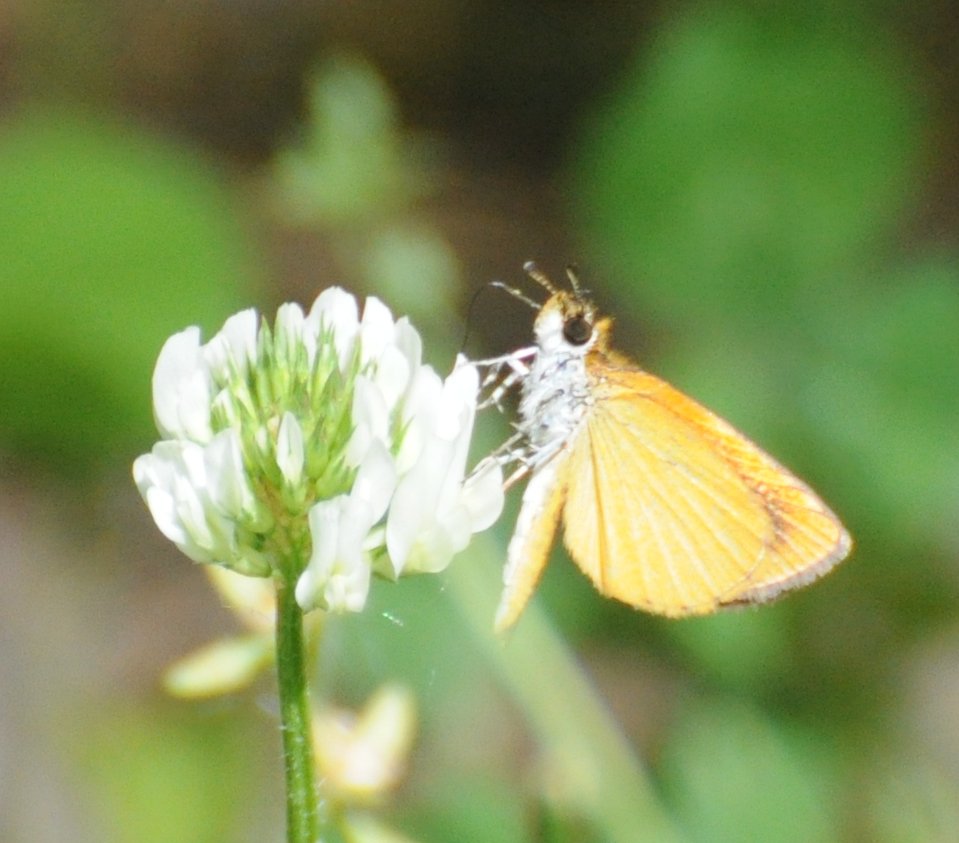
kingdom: Animalia
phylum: Arthropoda
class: Insecta
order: Lepidoptera
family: Hesperiidae
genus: Ancyloxypha
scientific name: Ancyloxypha numitor
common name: Least Skipper
